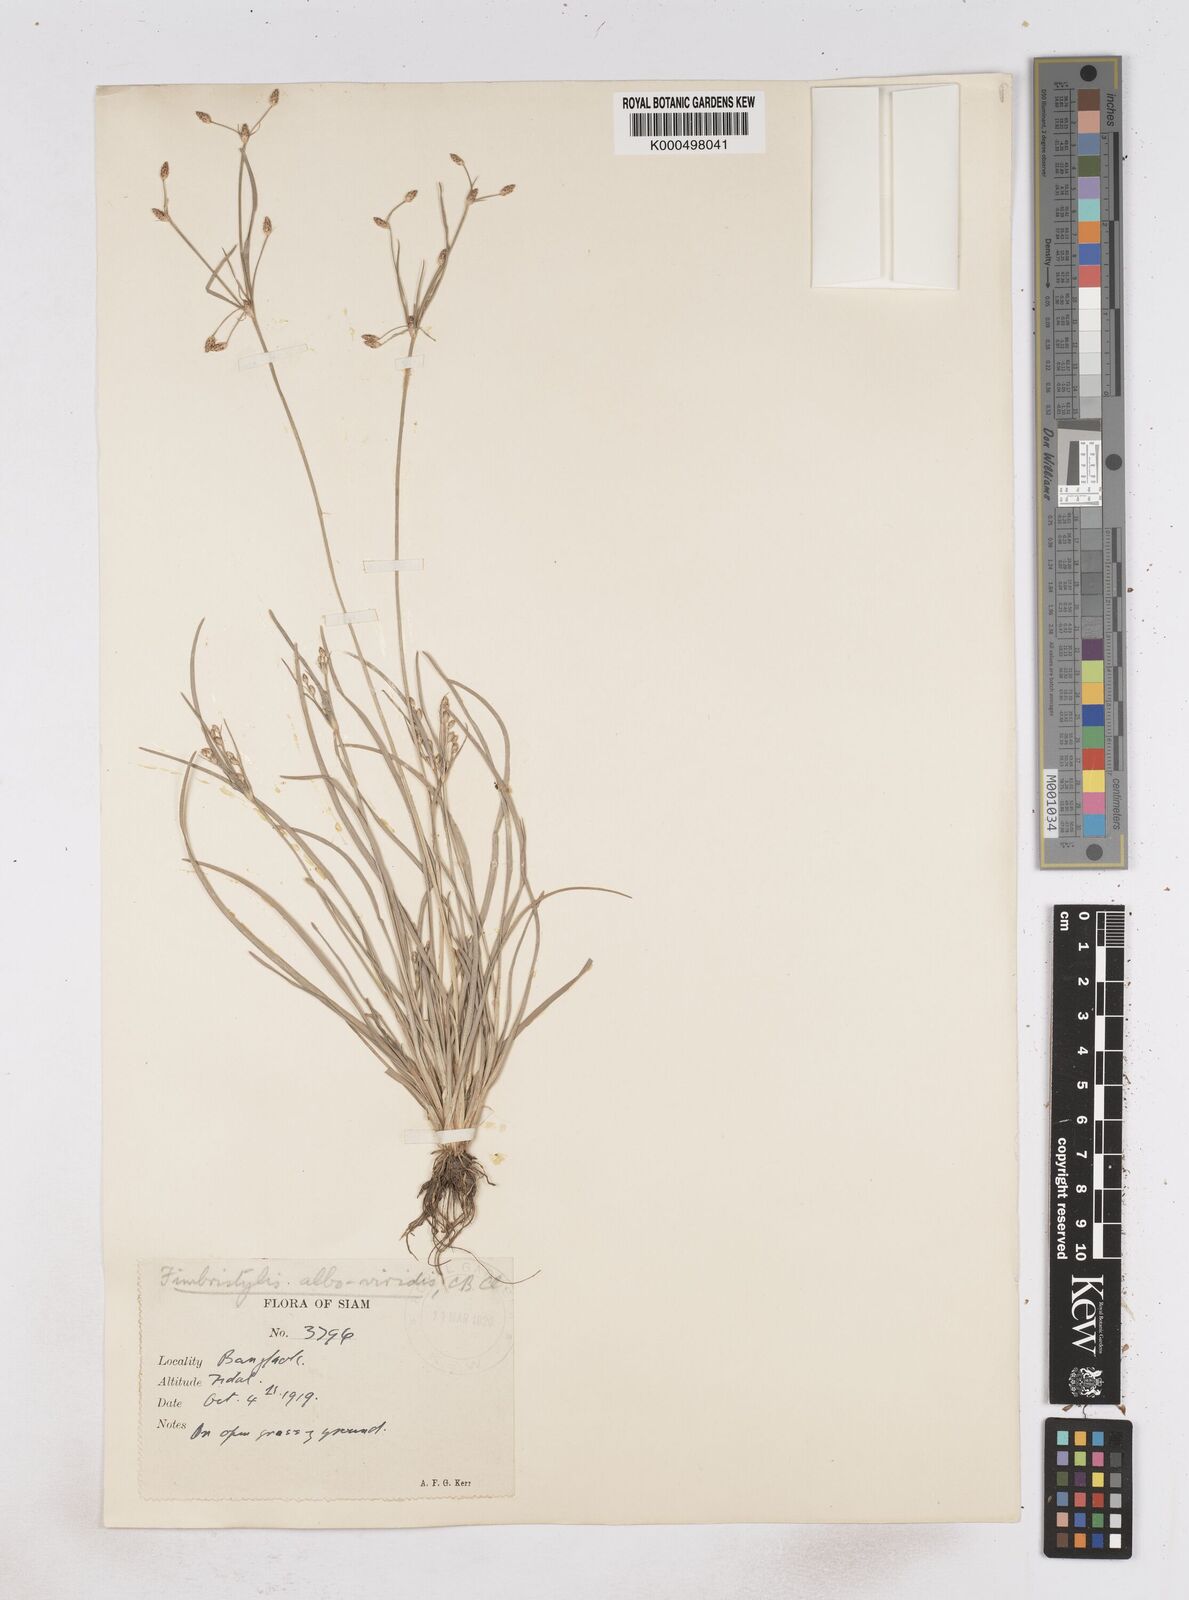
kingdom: Plantae
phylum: Tracheophyta
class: Liliopsida
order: Poales
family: Cyperaceae
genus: Fimbristylis
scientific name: Fimbristylis alboviridis
